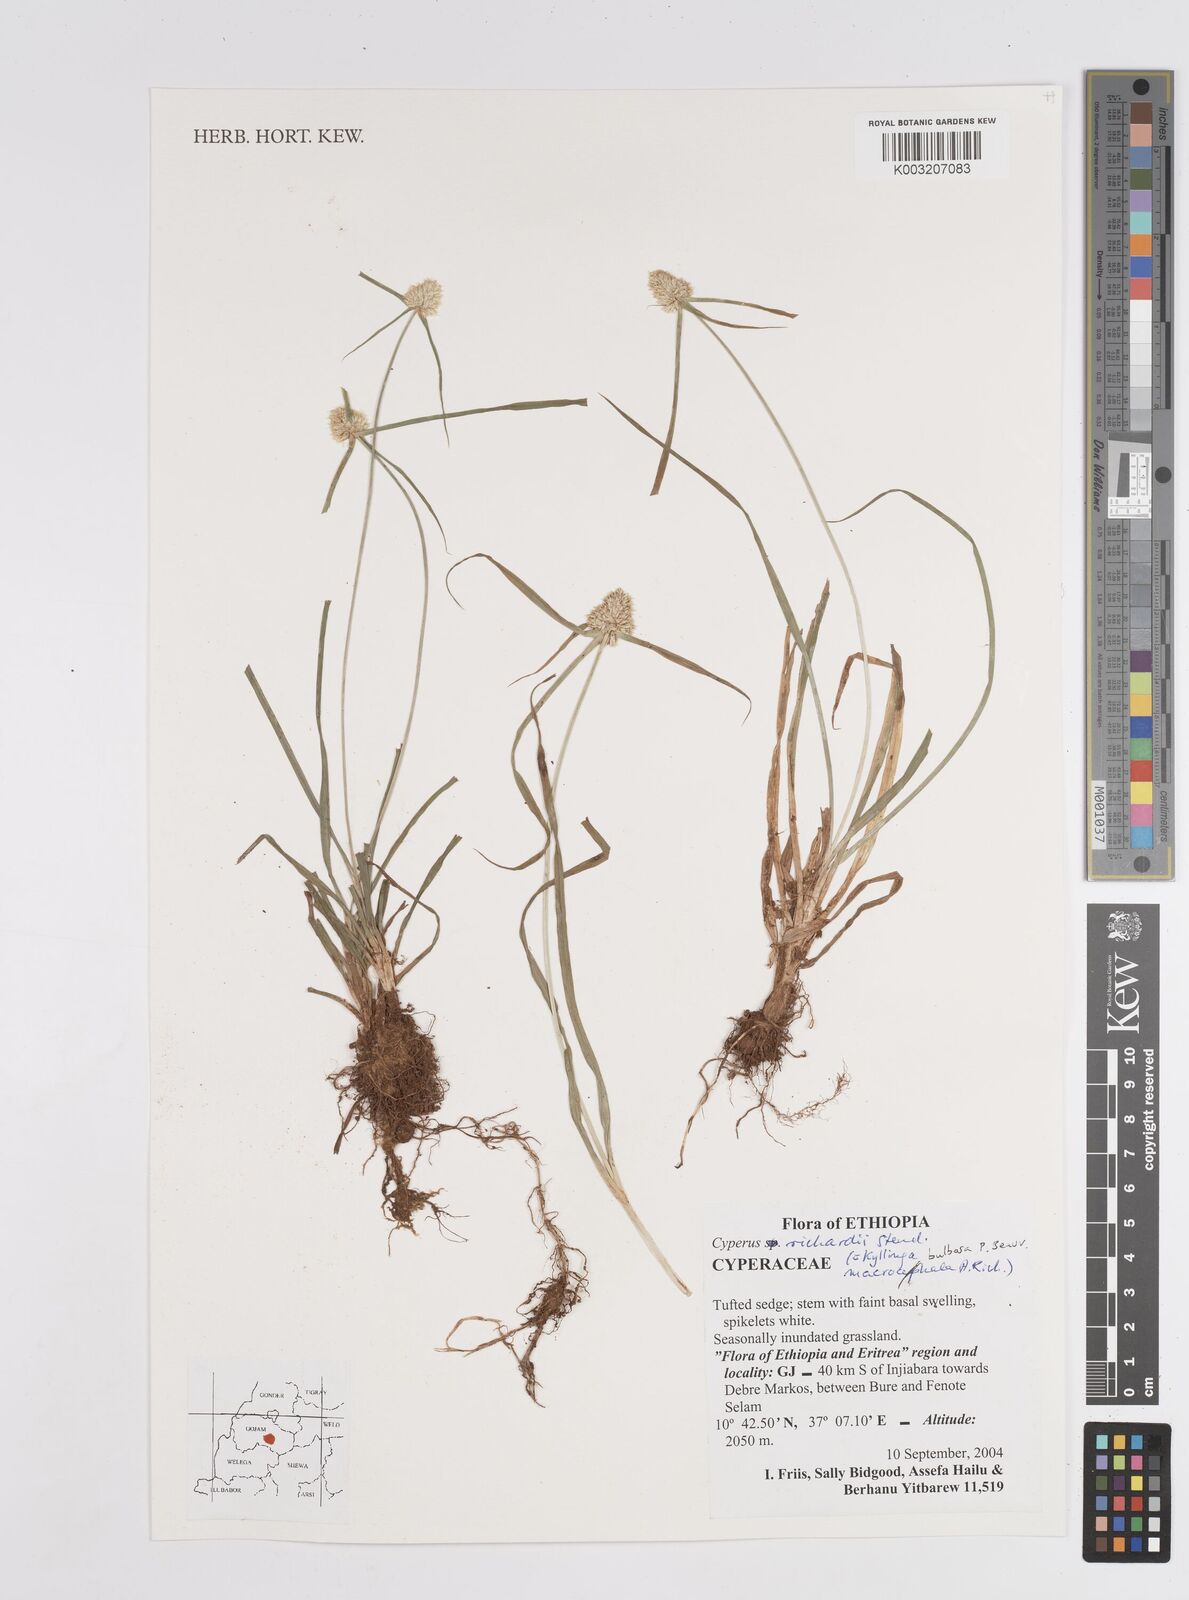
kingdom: Plantae
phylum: Tracheophyta
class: Liliopsida
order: Poales
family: Cyperaceae
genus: Cyperus
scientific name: Cyperus
